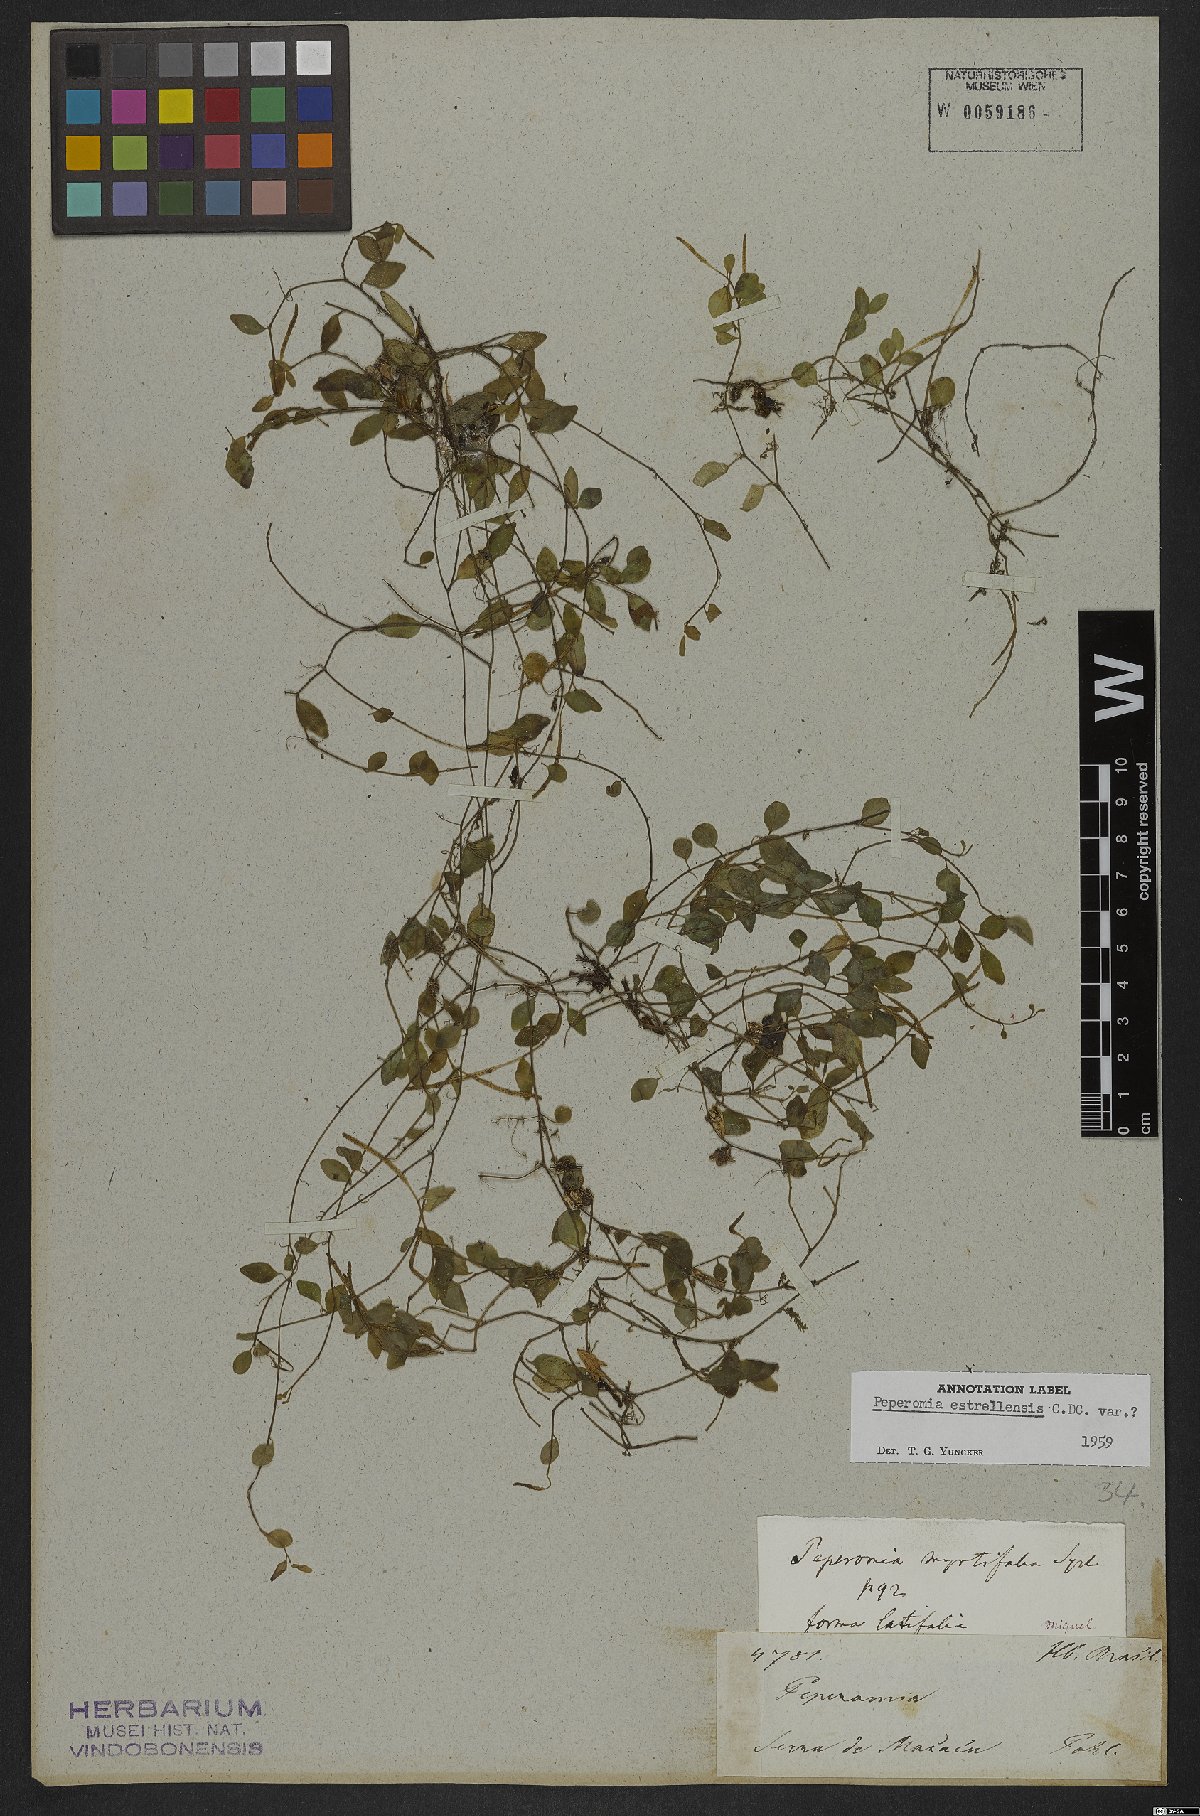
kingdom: Plantae
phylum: Tracheophyta
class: Magnoliopsida
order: Piperales
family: Piperaceae
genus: Peperomia
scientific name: Peperomia corcovadensis
